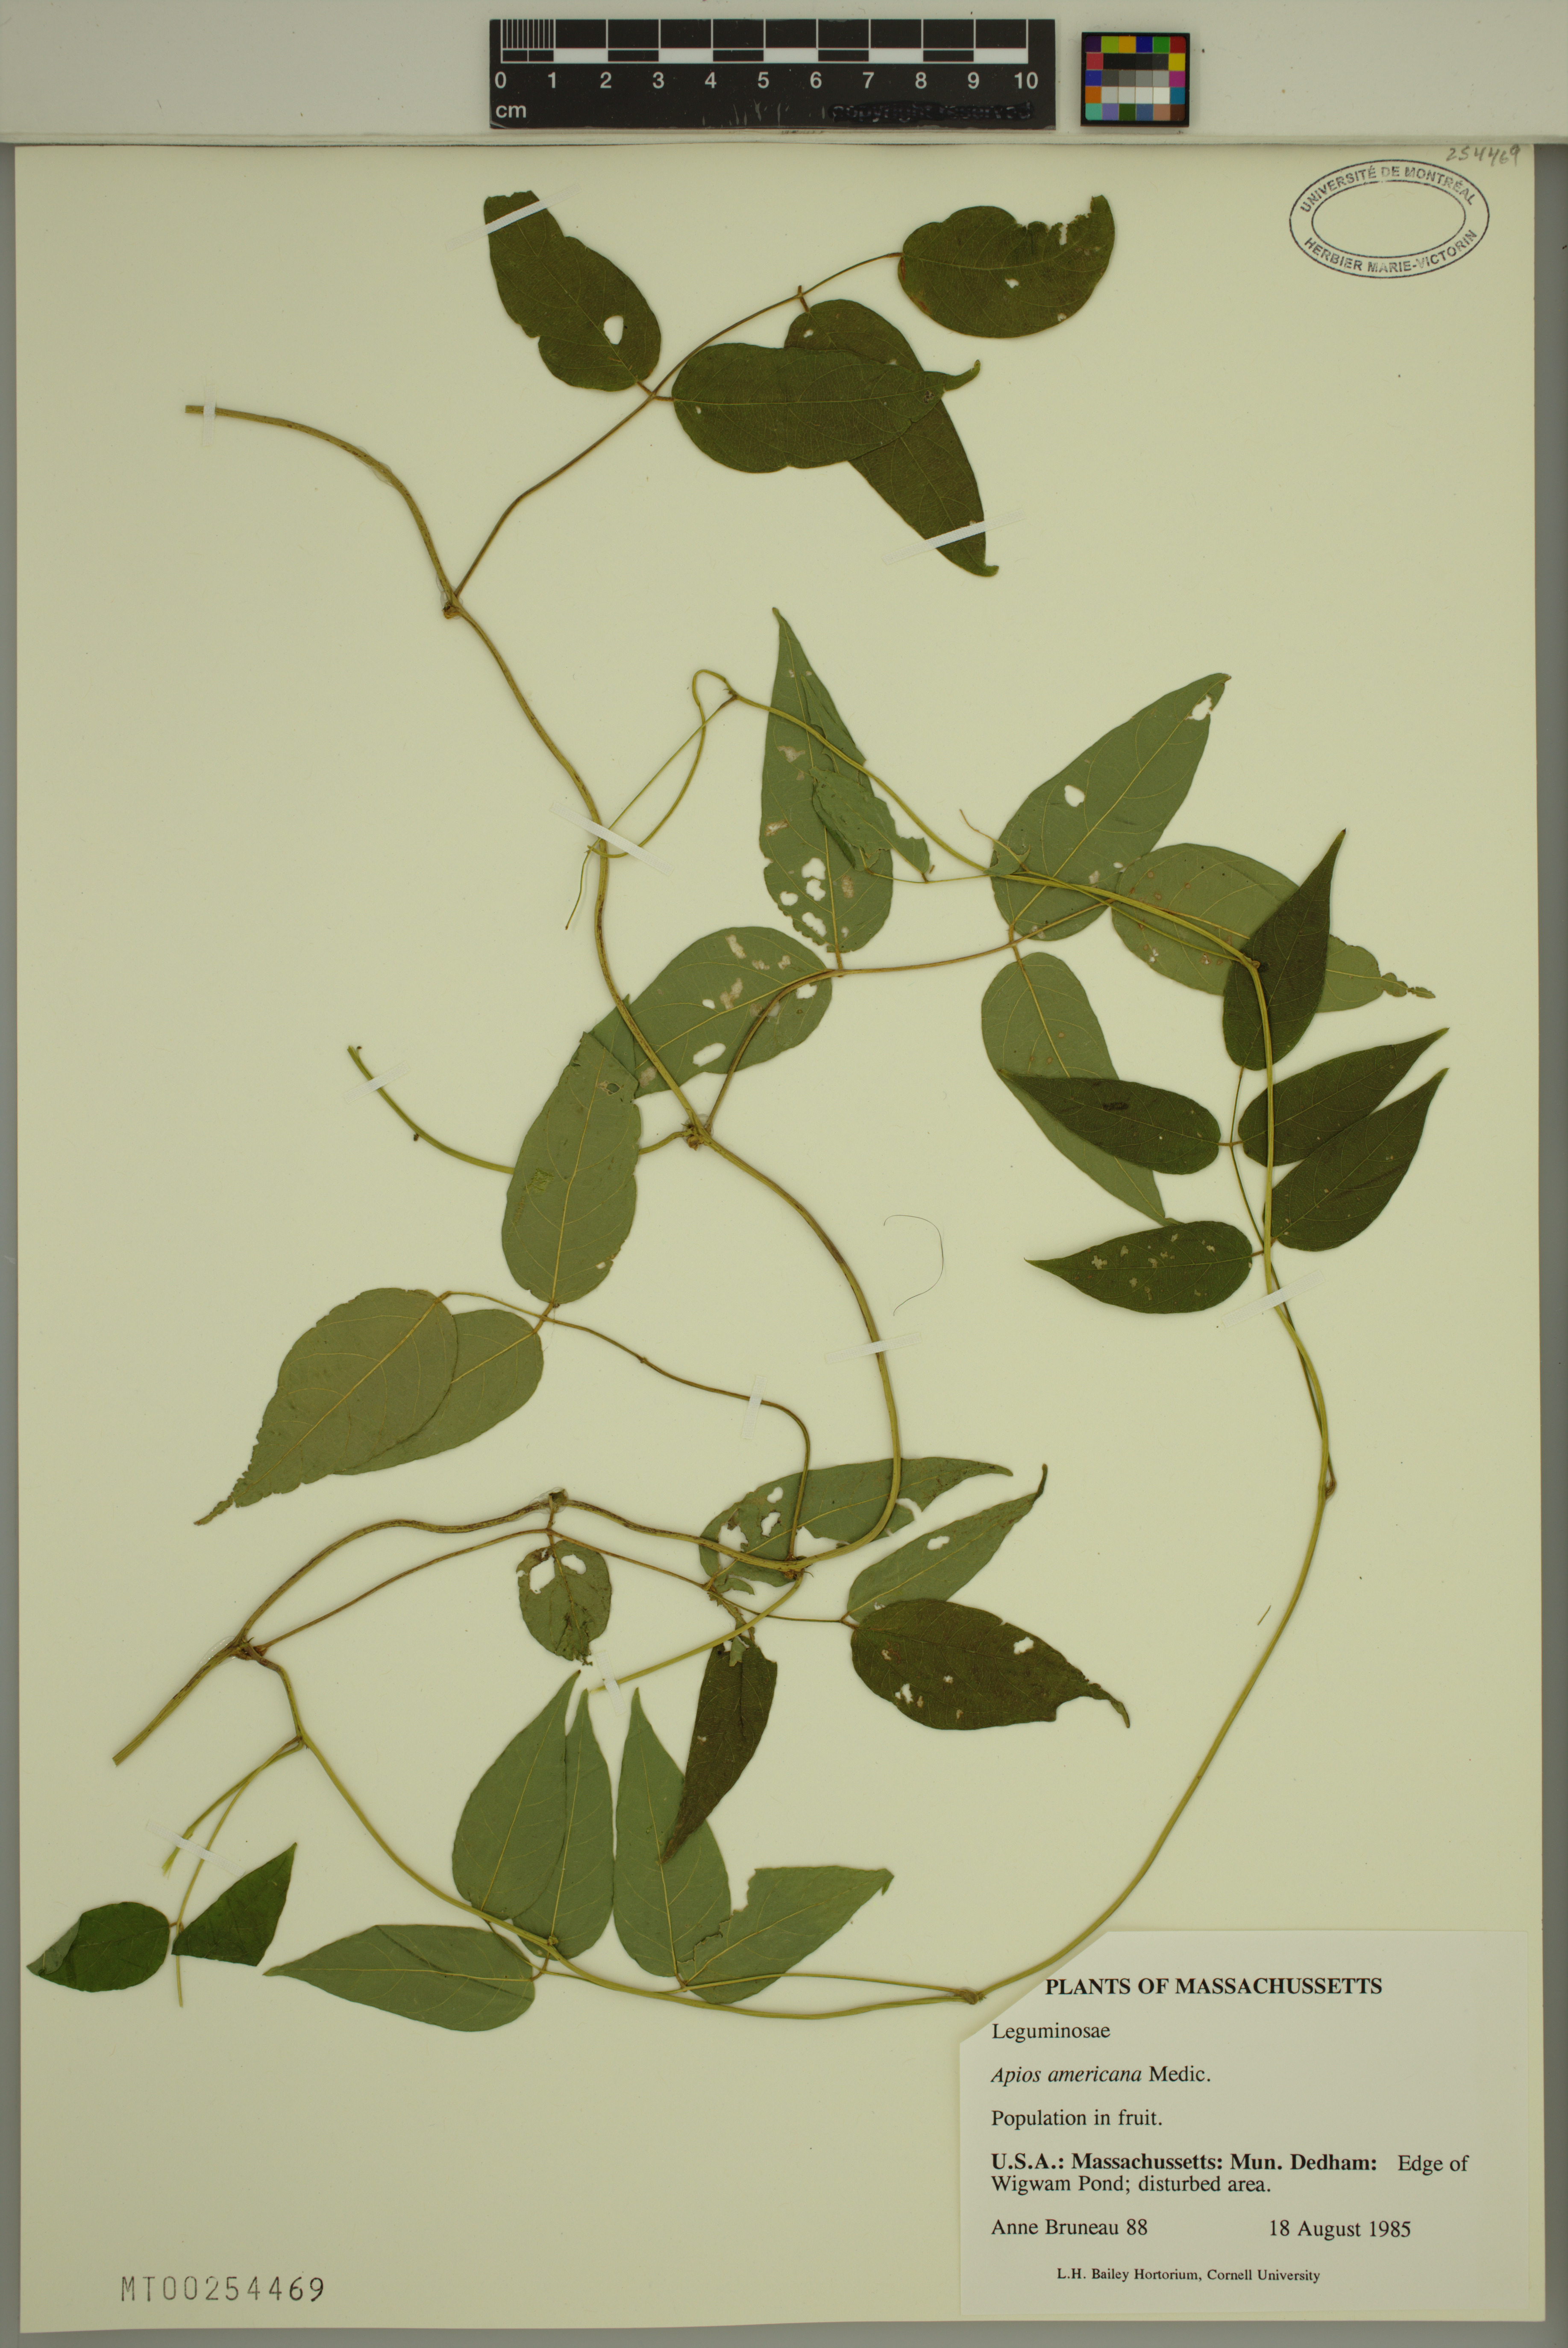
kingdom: Plantae
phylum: Tracheophyta
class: Magnoliopsida
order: Fabales
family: Fabaceae
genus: Apios
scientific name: Apios americana
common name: American potato-bean
